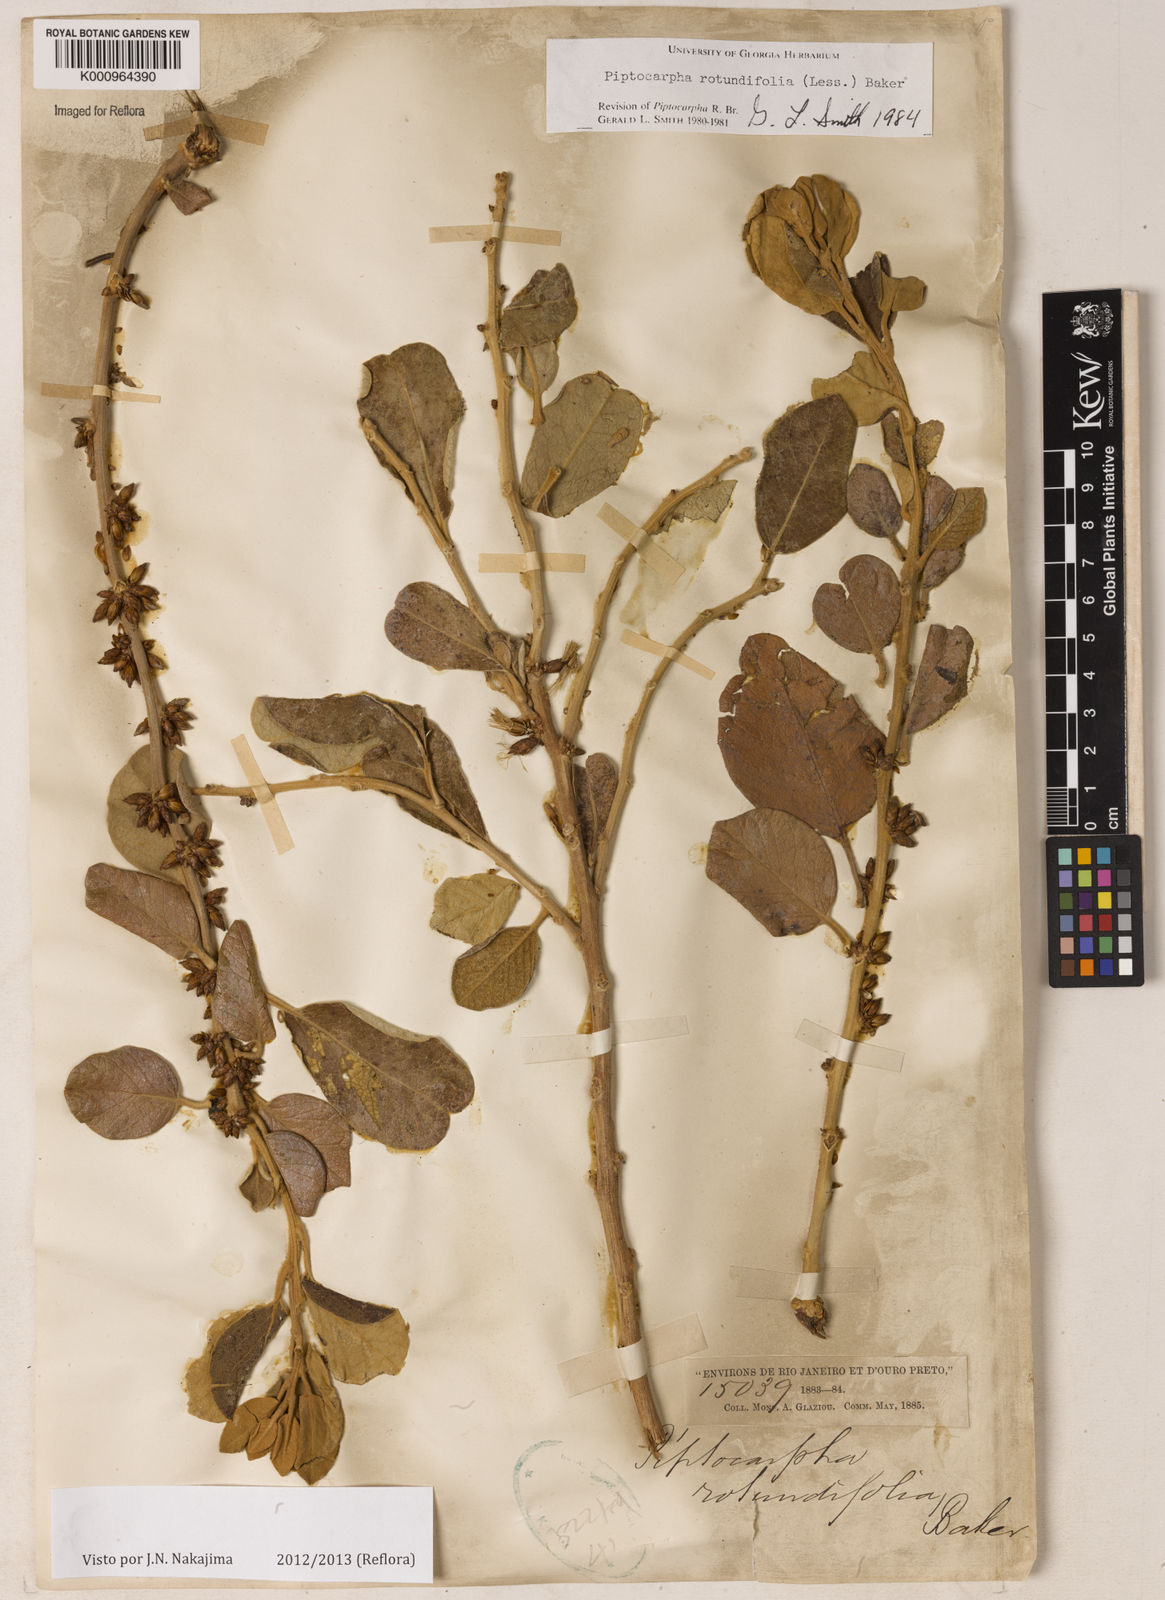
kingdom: Plantae
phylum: Tracheophyta
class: Magnoliopsida
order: Asterales
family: Asteraceae
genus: Piptocarpha
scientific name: Piptocarpha rotundifolia
